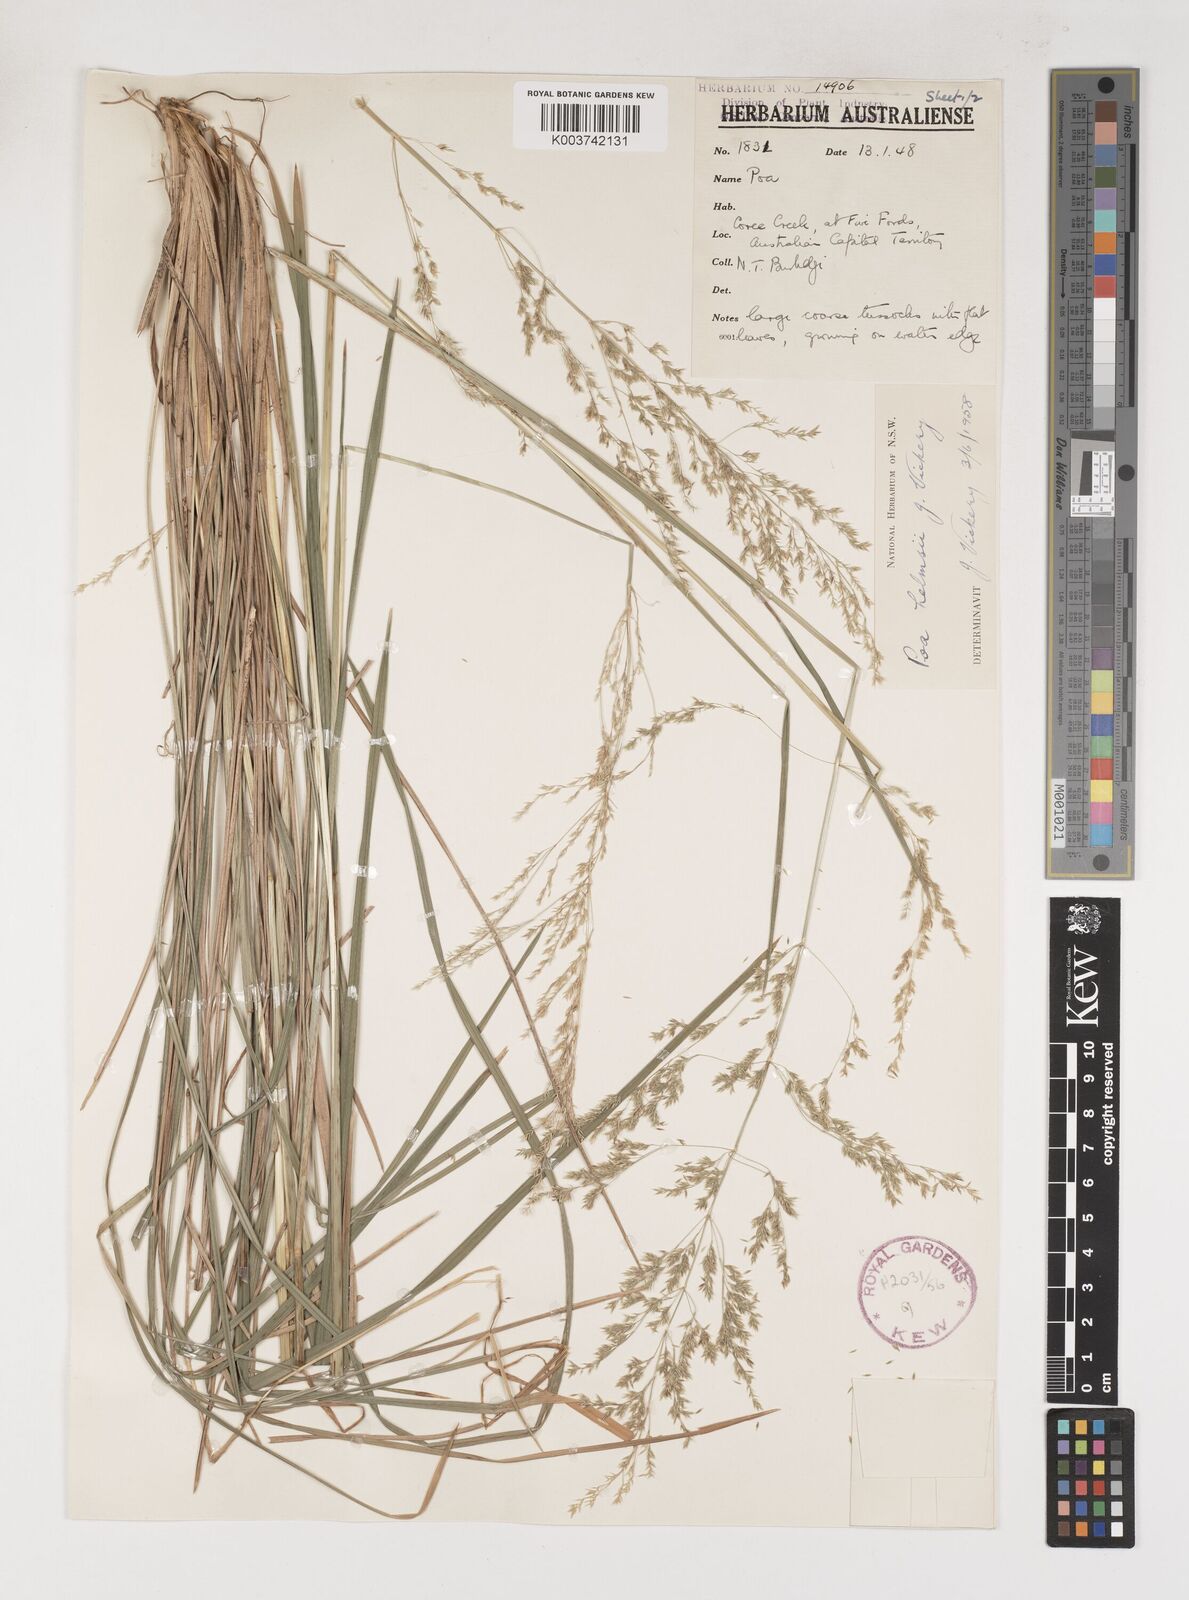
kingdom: Plantae
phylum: Tracheophyta
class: Liliopsida
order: Poales
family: Poaceae
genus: Poa
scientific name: Poa helmsii
